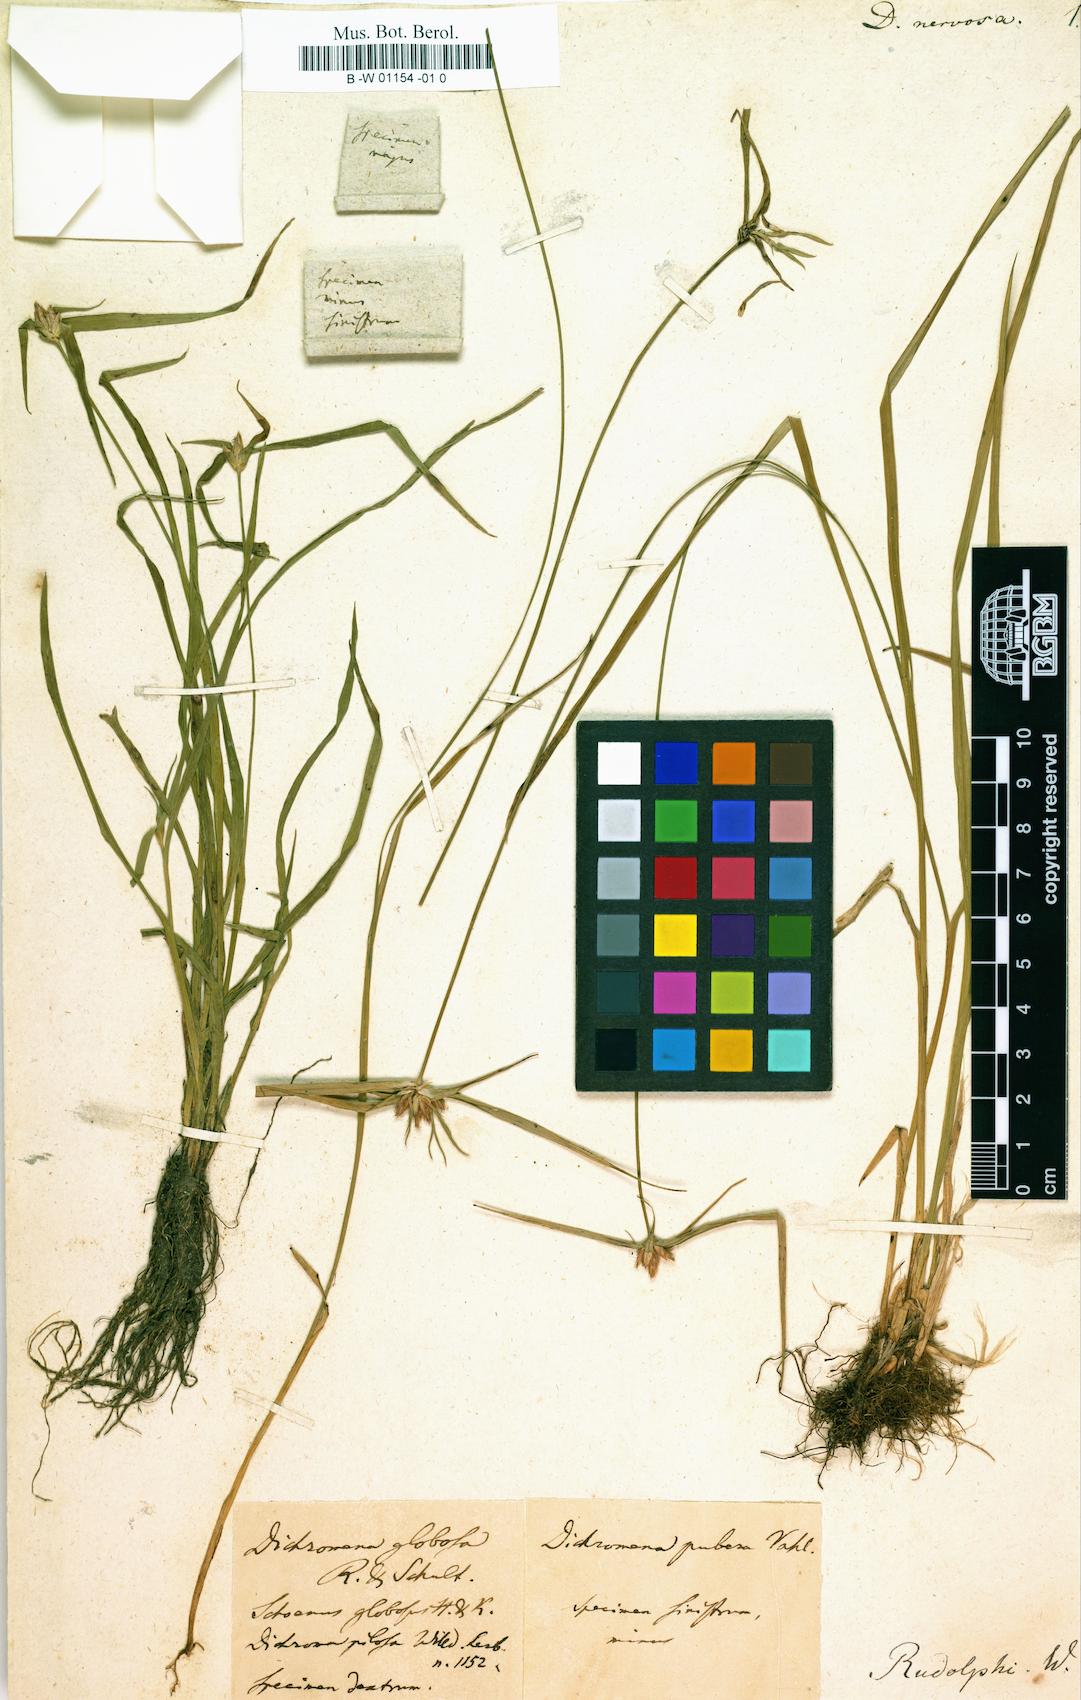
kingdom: Plantae
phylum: Tracheophyta
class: Liliopsida
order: Poales
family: Cyperaceae
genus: Rhynchospora
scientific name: Rhynchospora nervosa
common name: Star sedge
